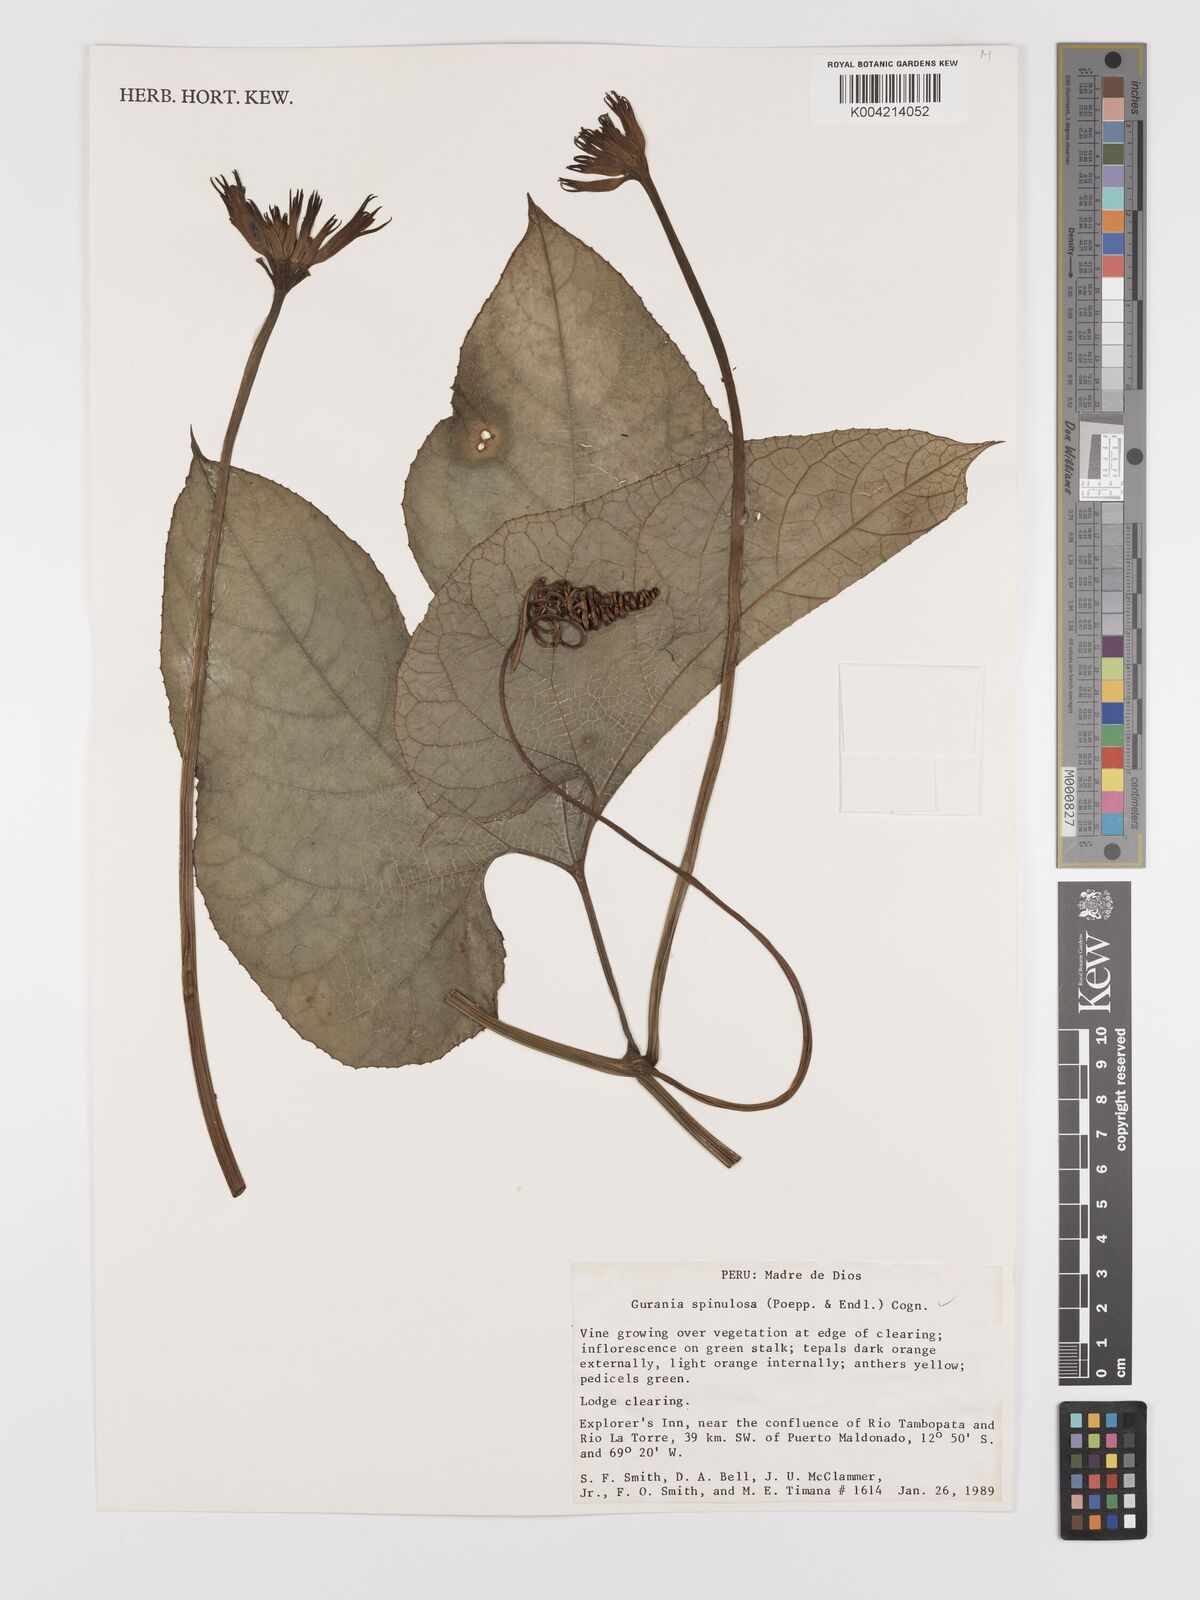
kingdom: Plantae
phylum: Tracheophyta
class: Magnoliopsida
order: Cucurbitales
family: Cucurbitaceae
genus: Gurania
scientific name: Gurania lobata
